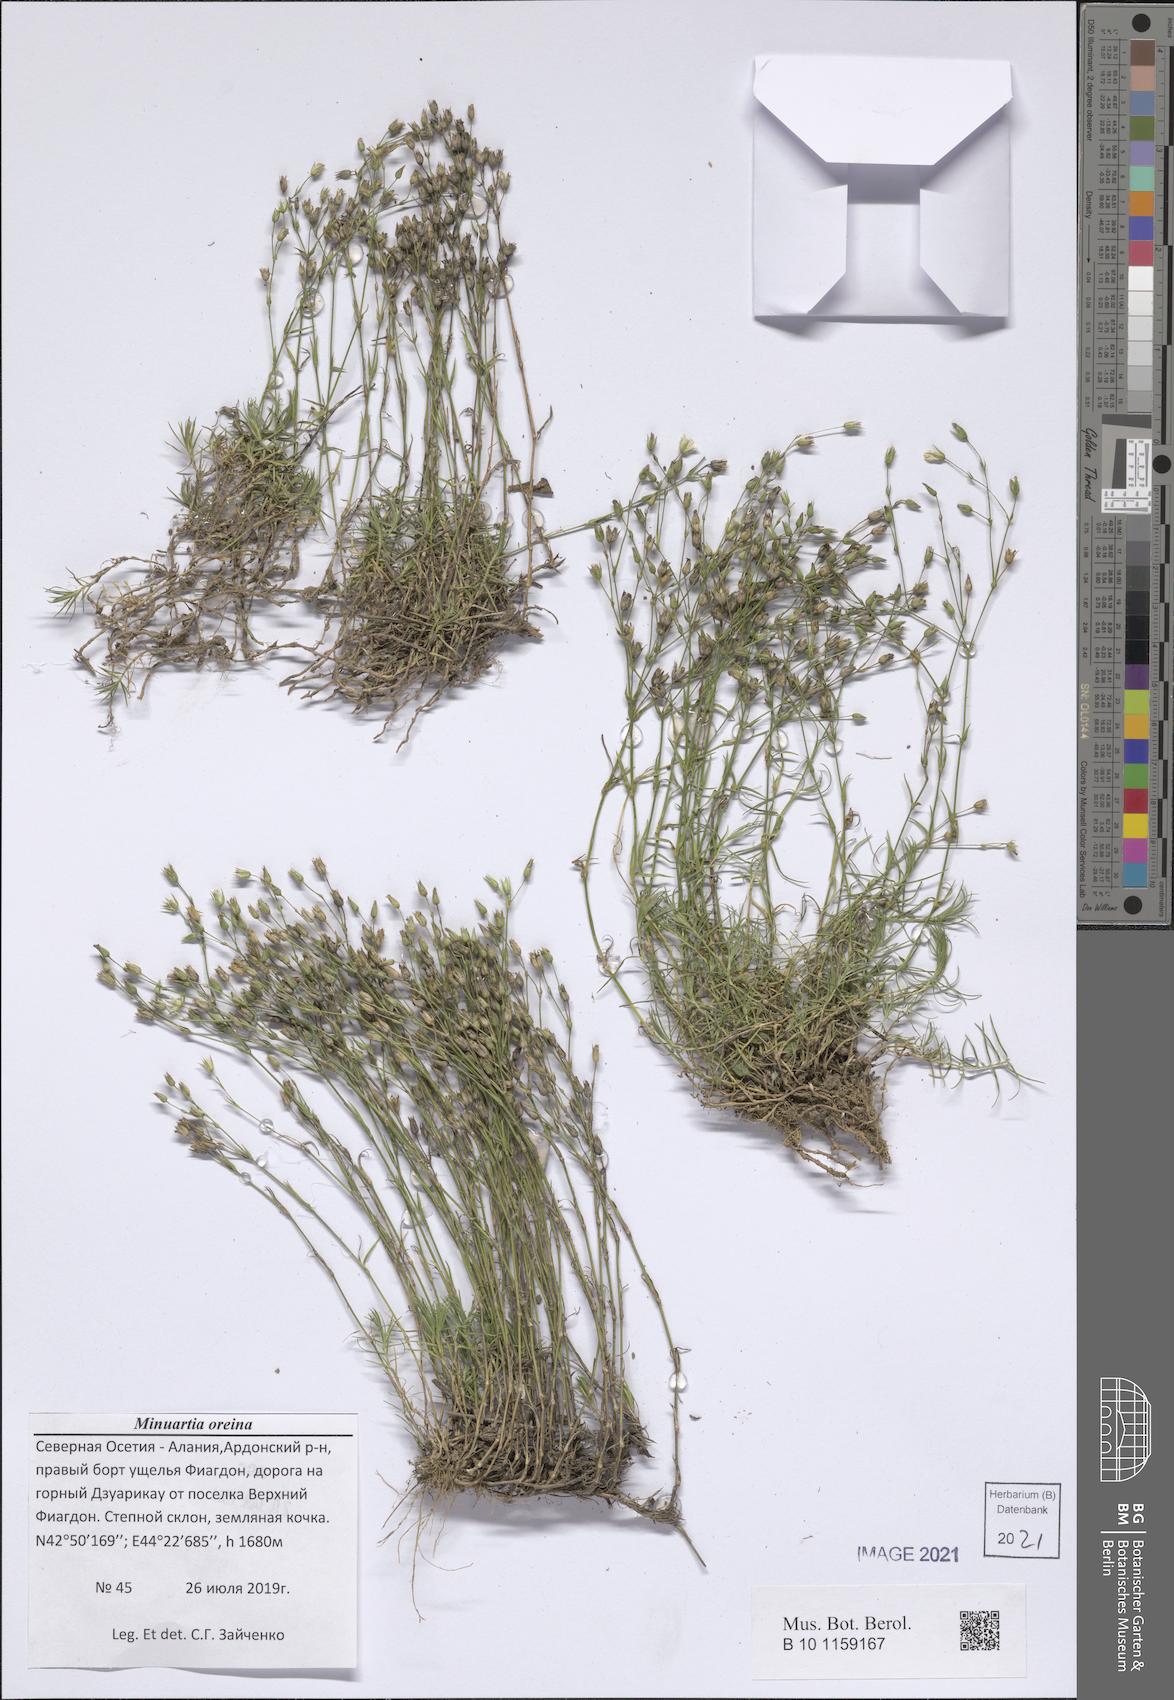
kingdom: Plantae
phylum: Tracheophyta
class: Magnoliopsida
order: Caryophyllales
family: Caryophyllaceae
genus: Minuartia
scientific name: Minuartia hirsuta
